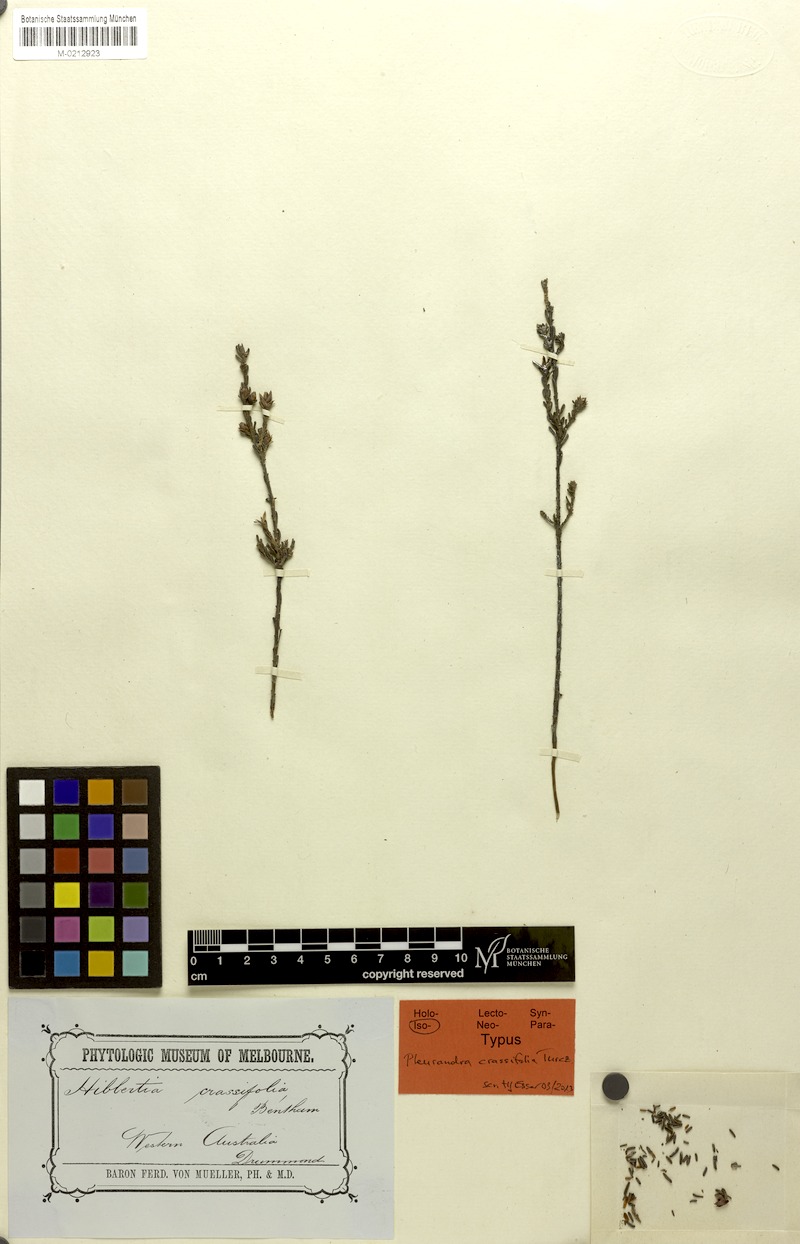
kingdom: Plantae
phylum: Tracheophyta
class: Magnoliopsida
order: Dilleniales
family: Dilleniaceae
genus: Hibbertia
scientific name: Hibbertia crassifolia
